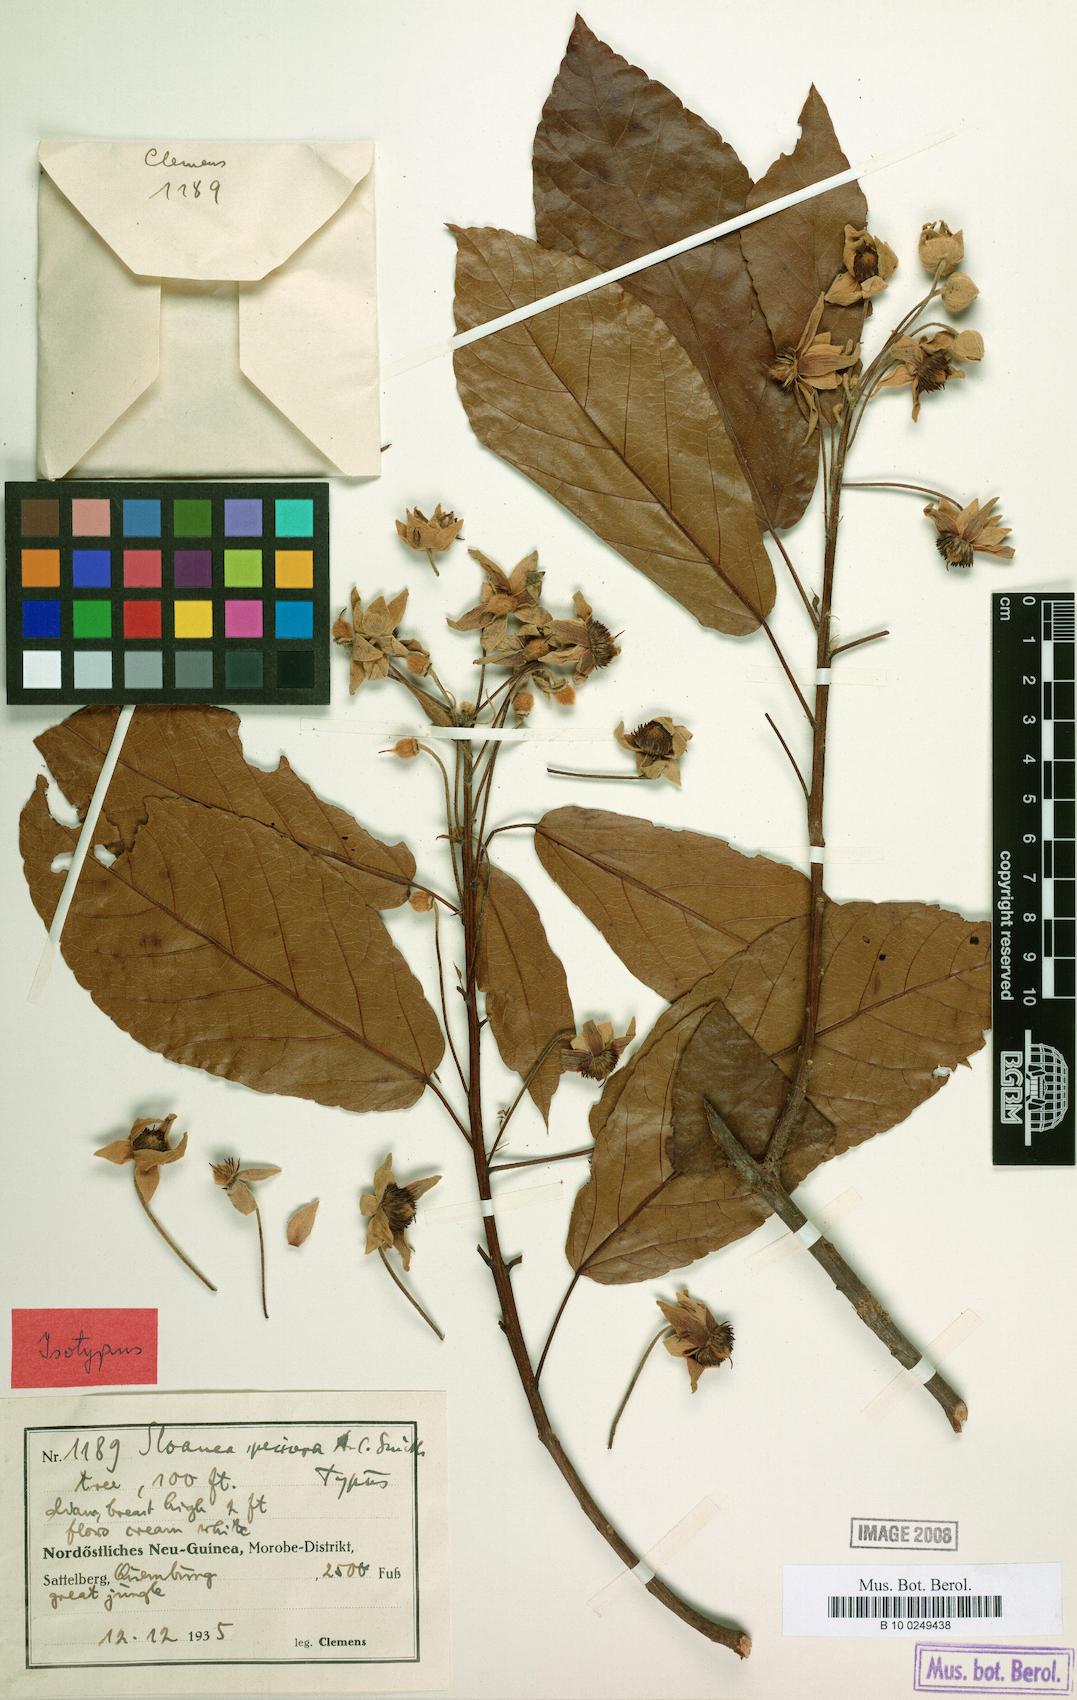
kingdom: Plantae
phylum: Tracheophyta
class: Magnoliopsida
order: Oxalidales
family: Elaeocarpaceae
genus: Sloanea
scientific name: Sloanea aculeata
